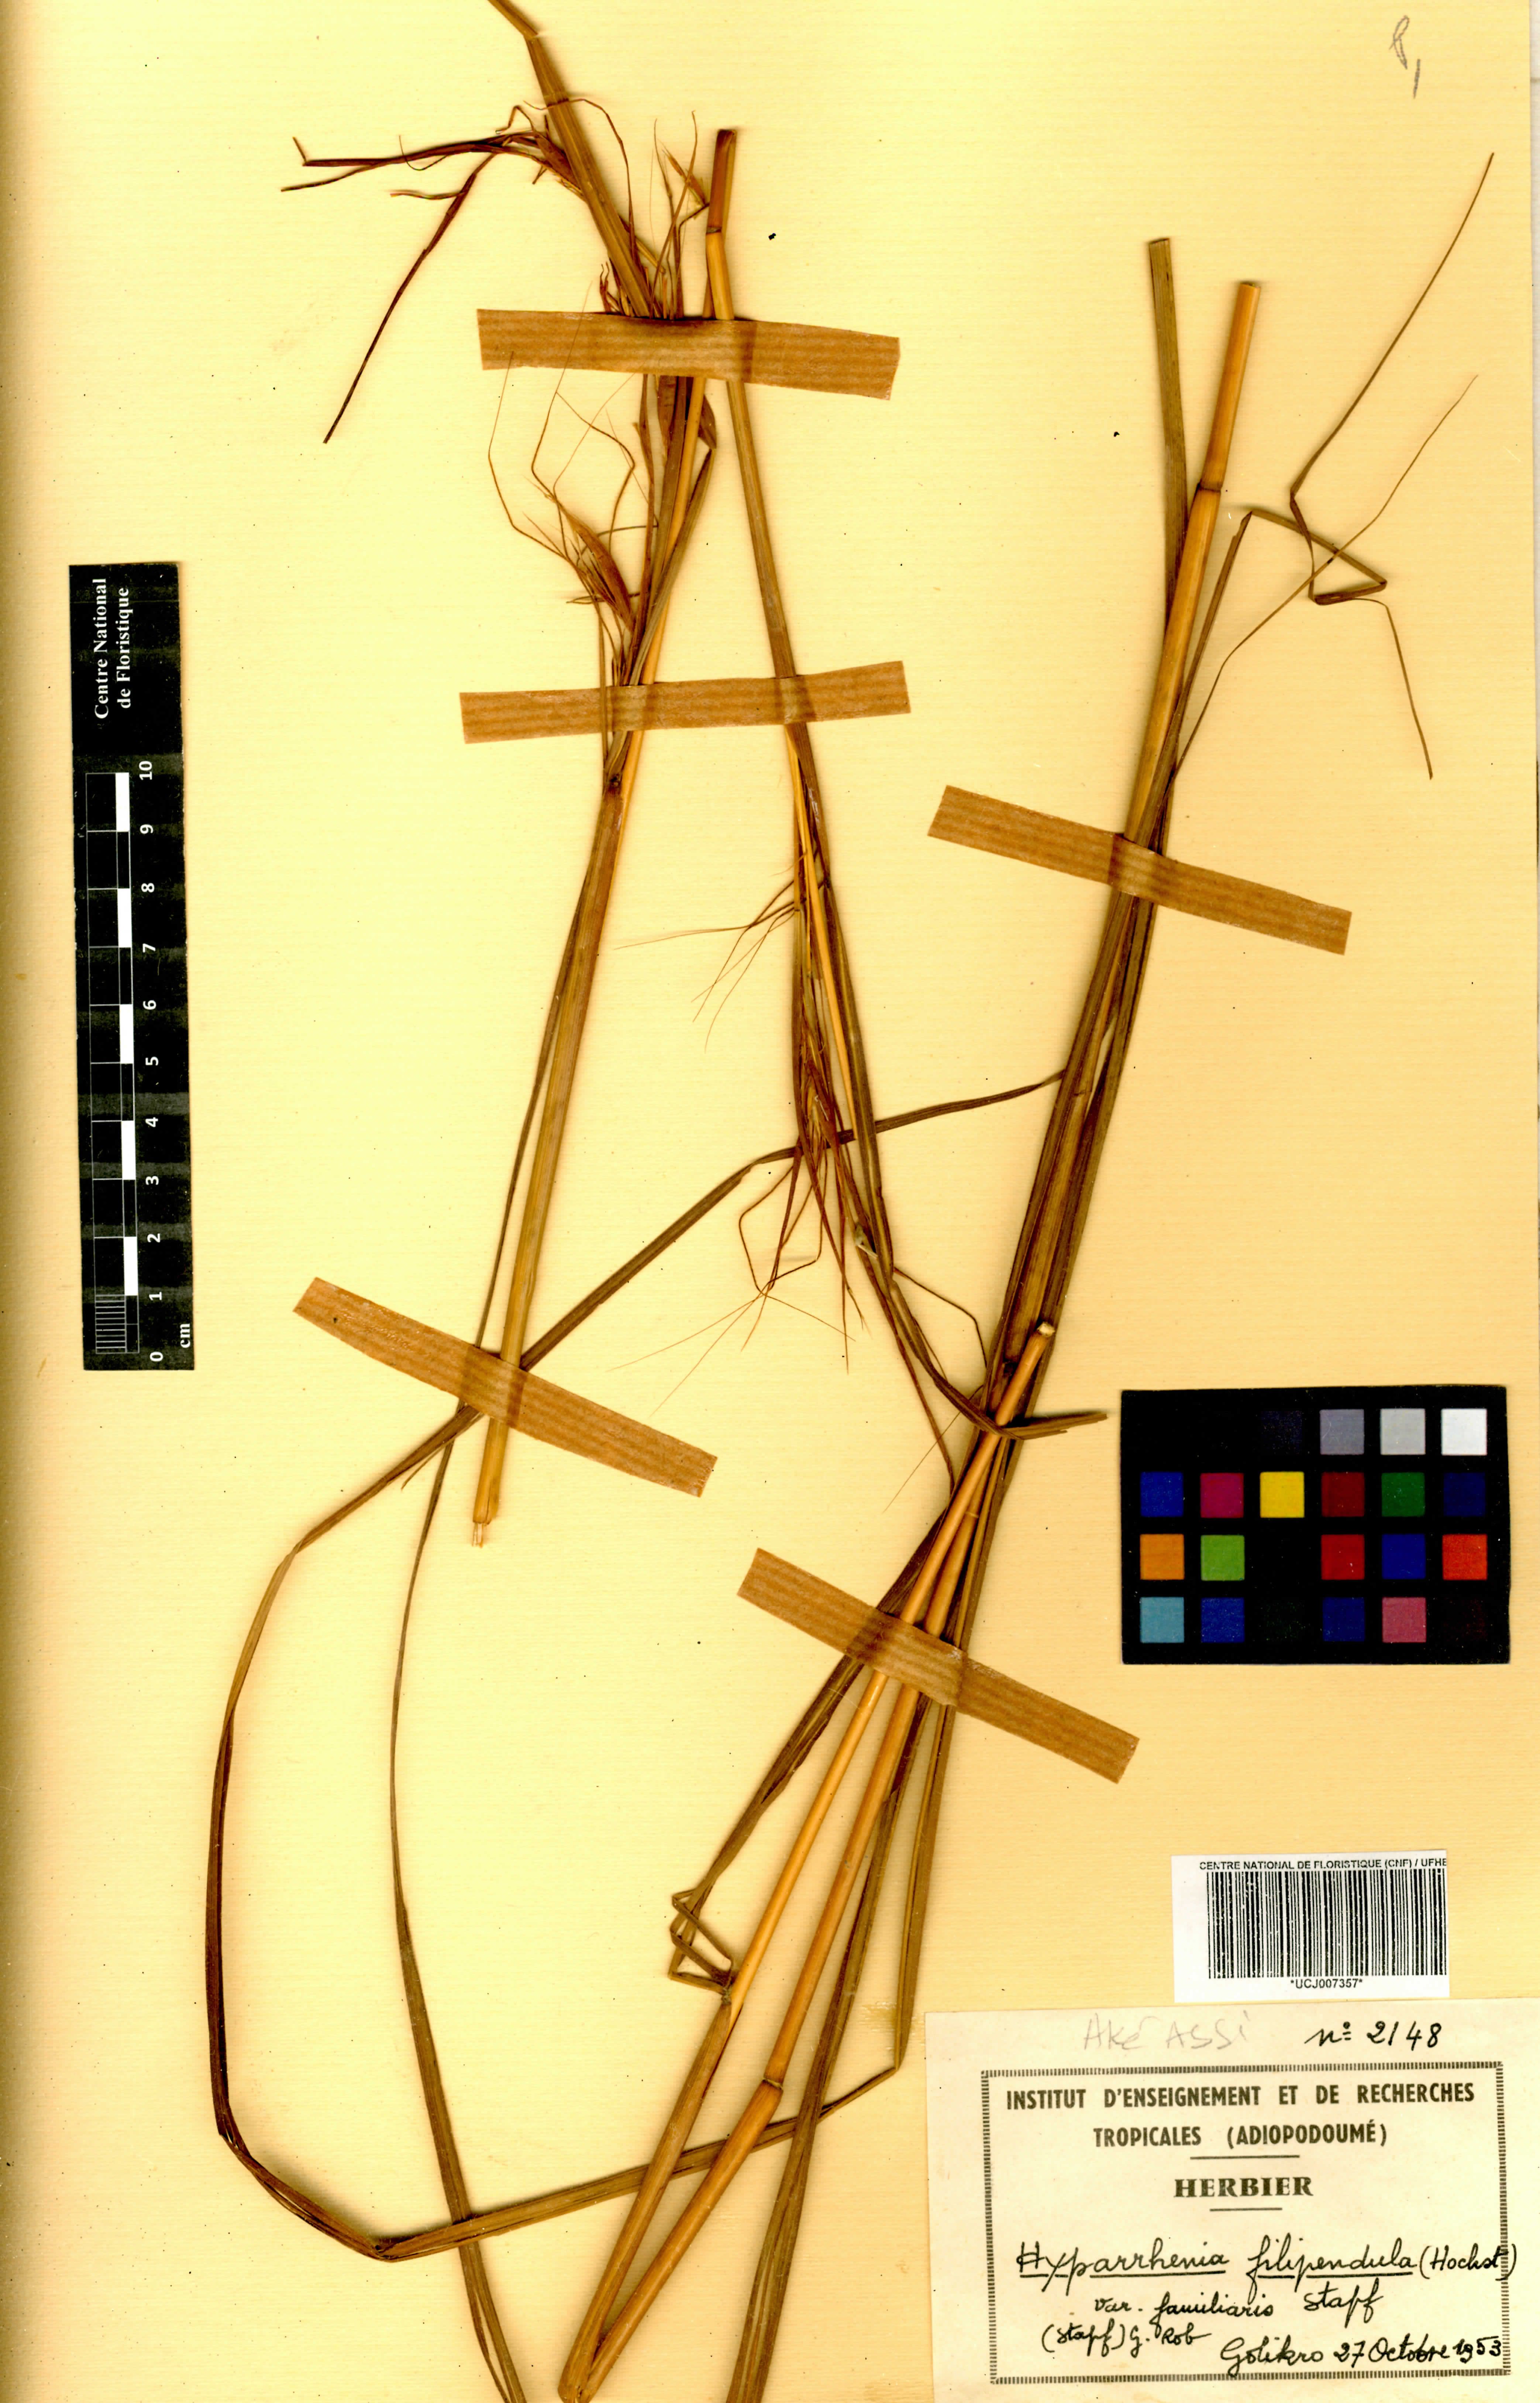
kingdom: Plantae
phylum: Tracheophyta
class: Liliopsida
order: Poales
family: Poaceae
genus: Hyparrhenia
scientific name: Hyparrhenia filipendula
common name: Tambookie grass
